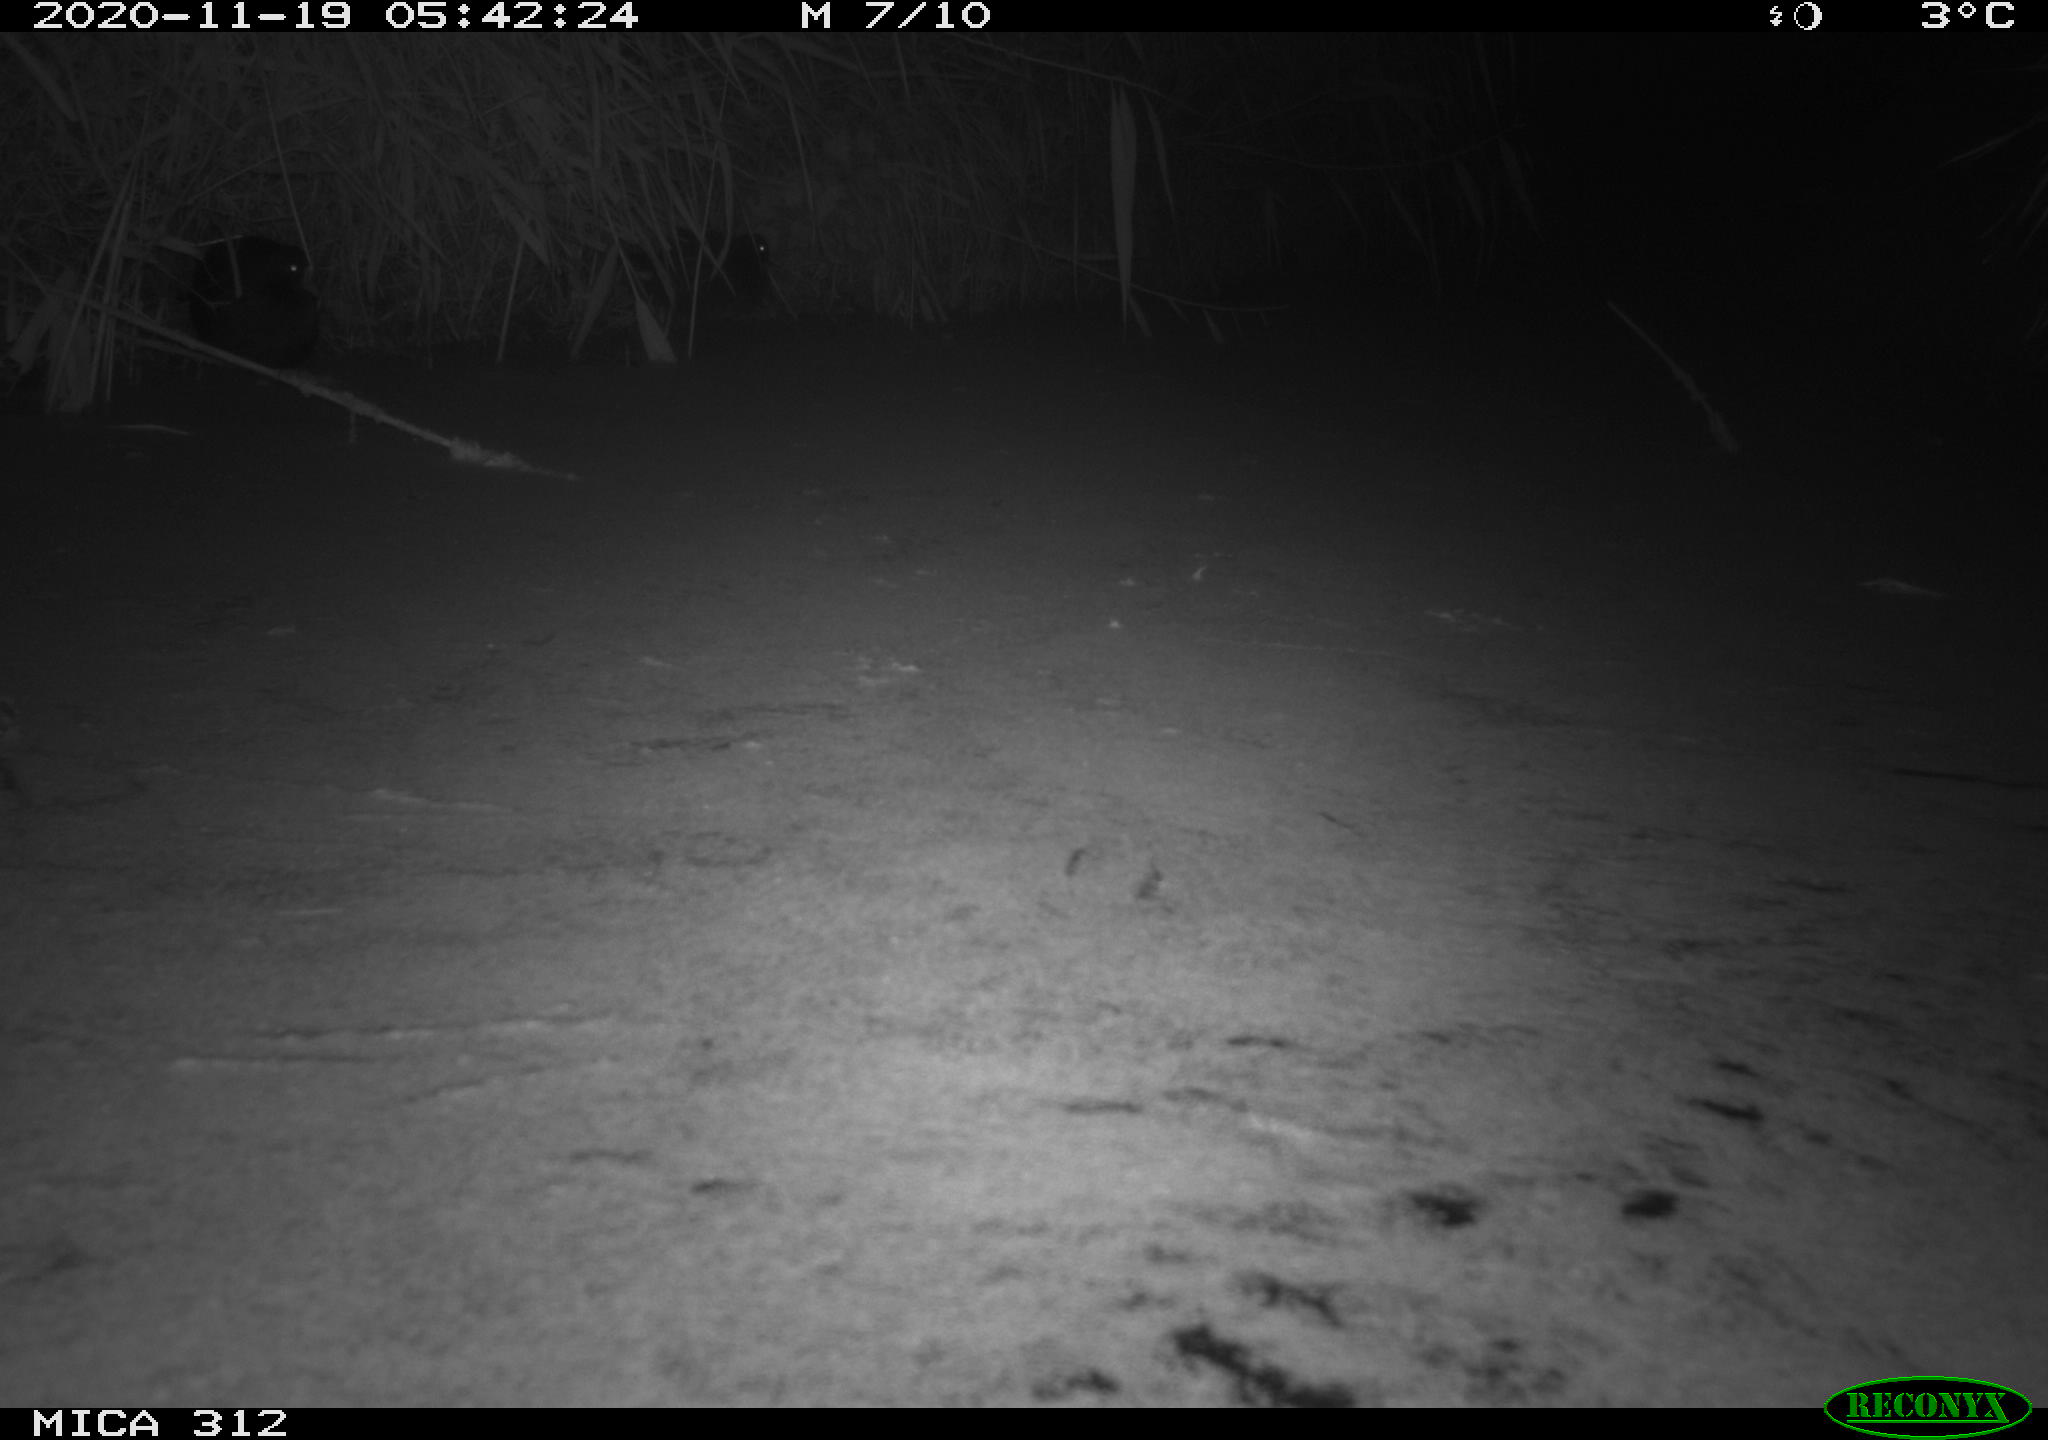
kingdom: Animalia
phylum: Chordata
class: Mammalia
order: Rodentia
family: Muridae
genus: Rattus
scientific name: Rattus norvegicus
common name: Brown rat
